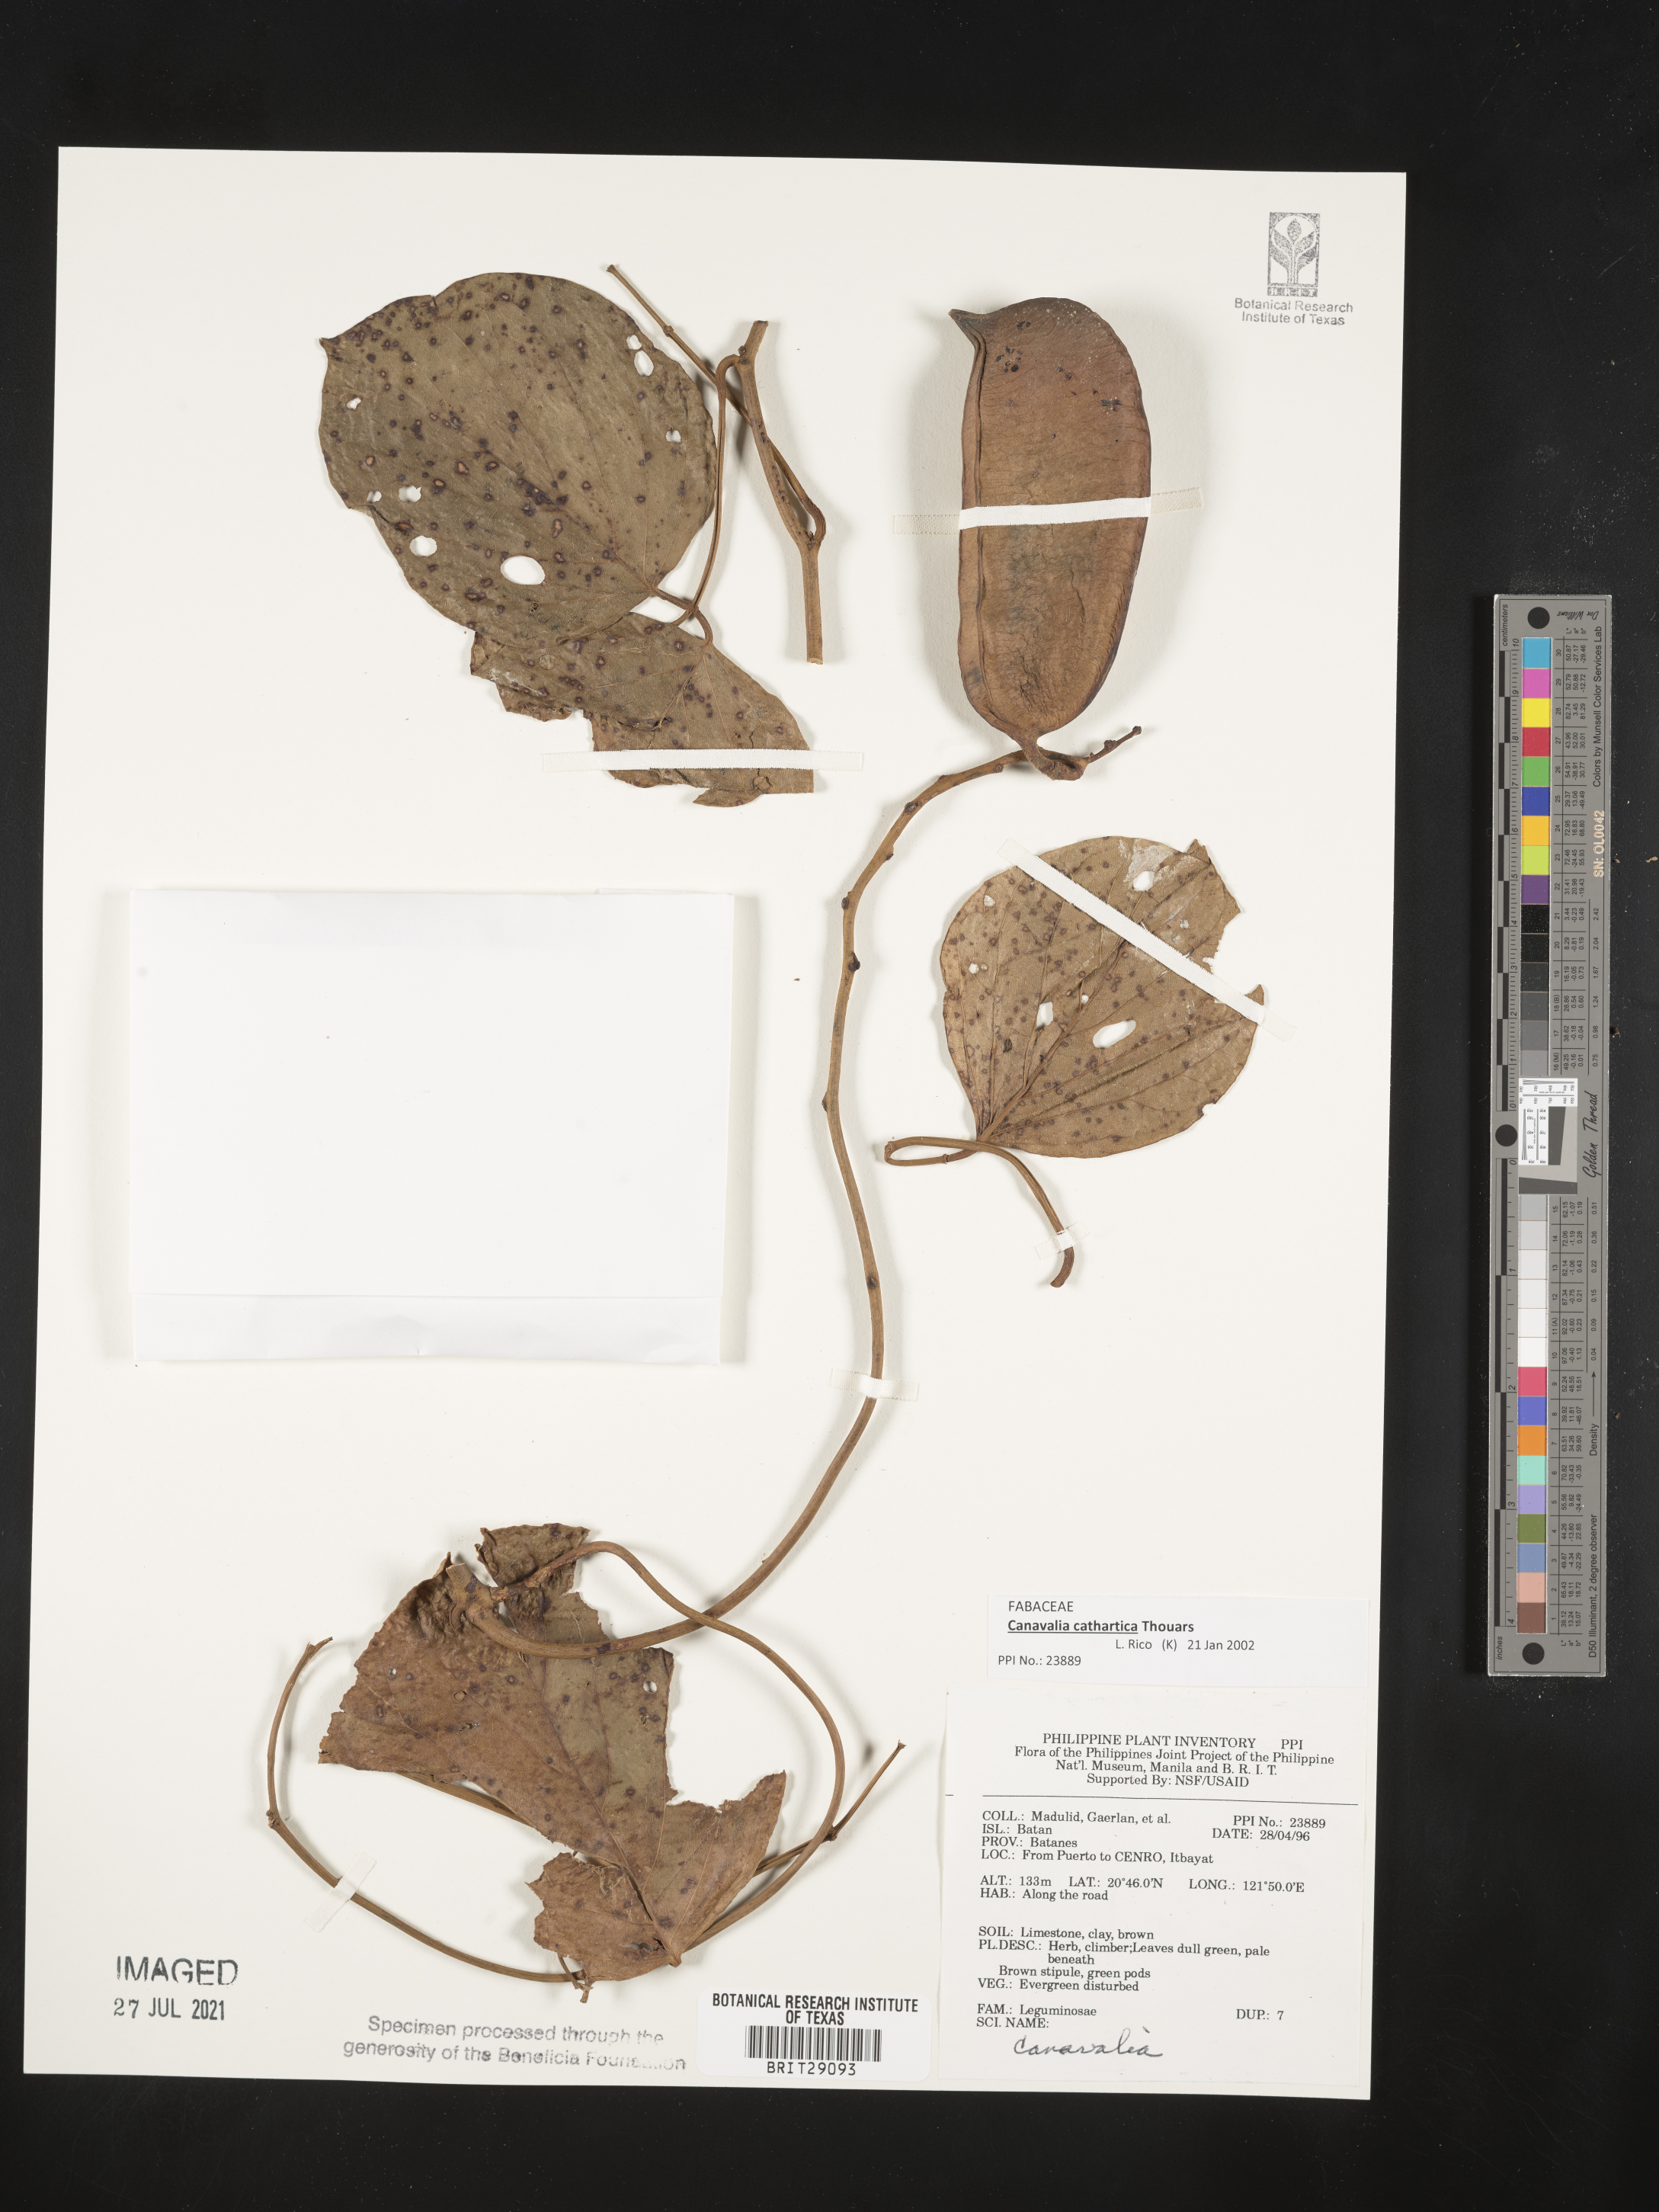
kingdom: Plantae
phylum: Tracheophyta
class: Magnoliopsida
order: Fabales
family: Fabaceae
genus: Canavalia
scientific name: Canavalia
